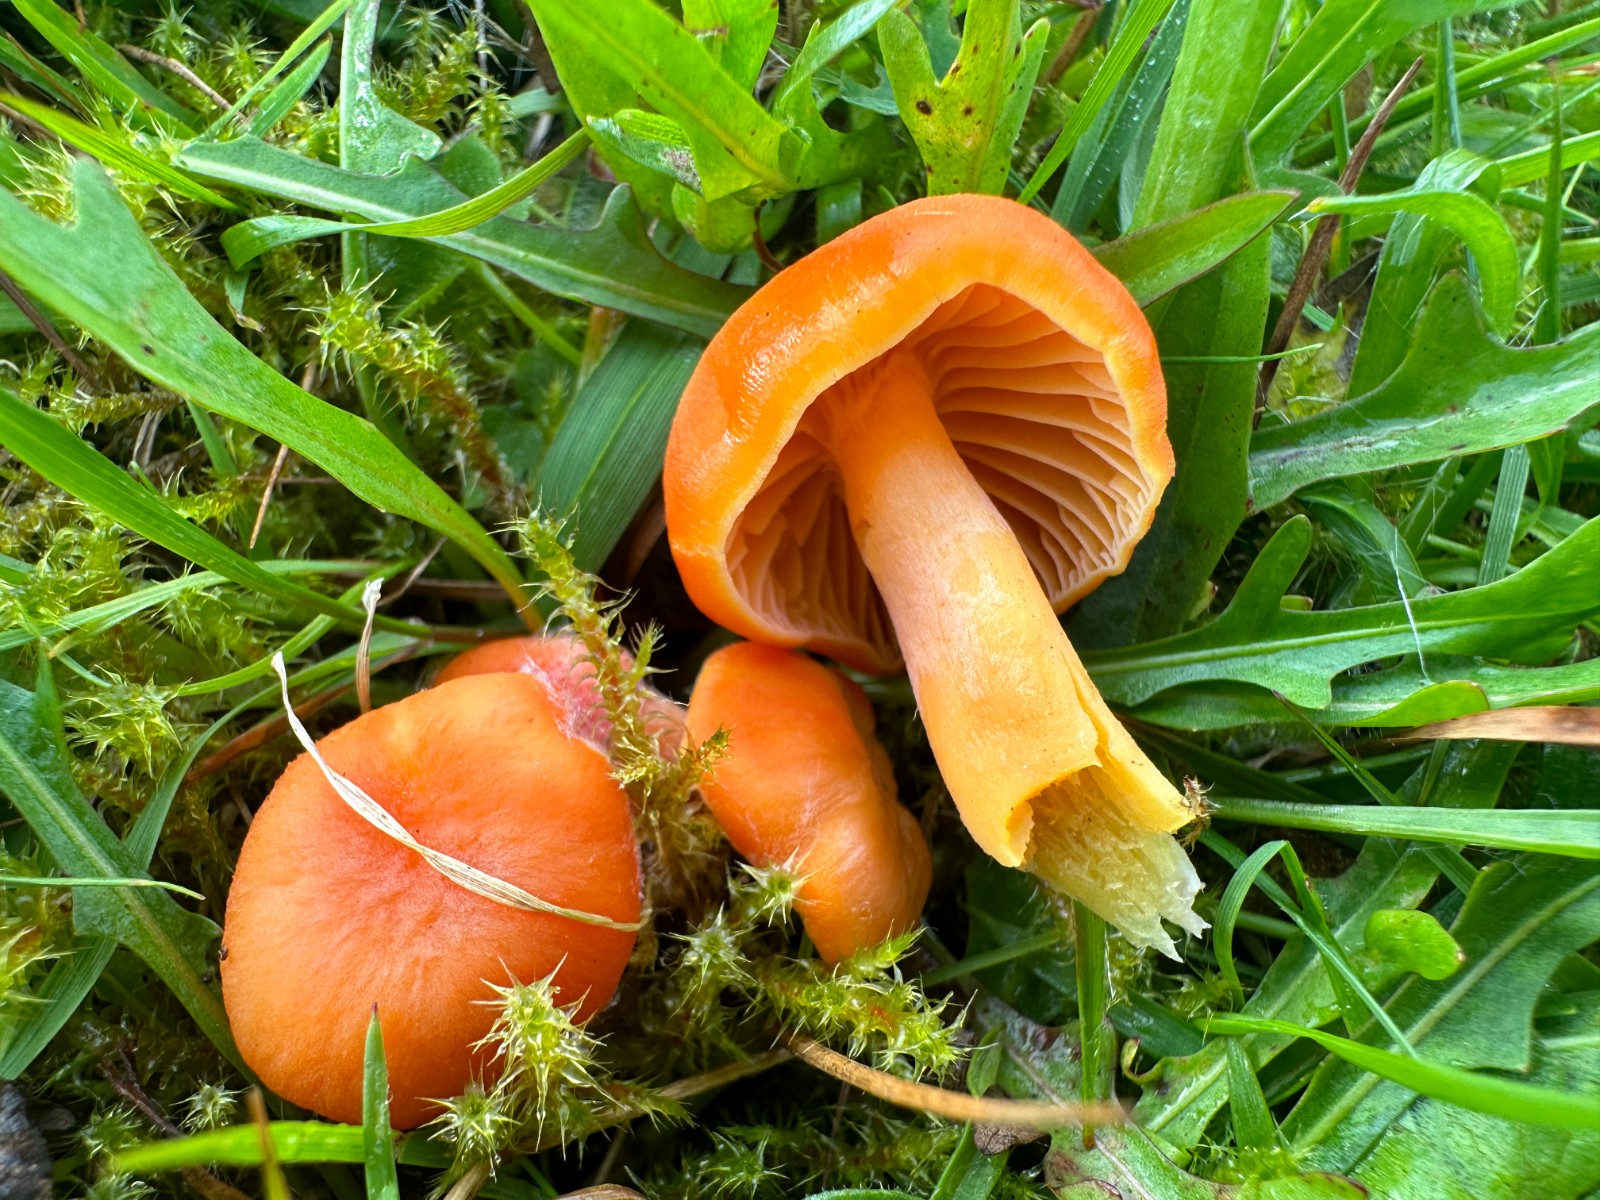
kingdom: Fungi
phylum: Basidiomycota
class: Agaricomycetes
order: Agaricales
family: Hygrophoraceae
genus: Hygrocybe
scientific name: Hygrocybe reidii
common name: honning-vokshat
